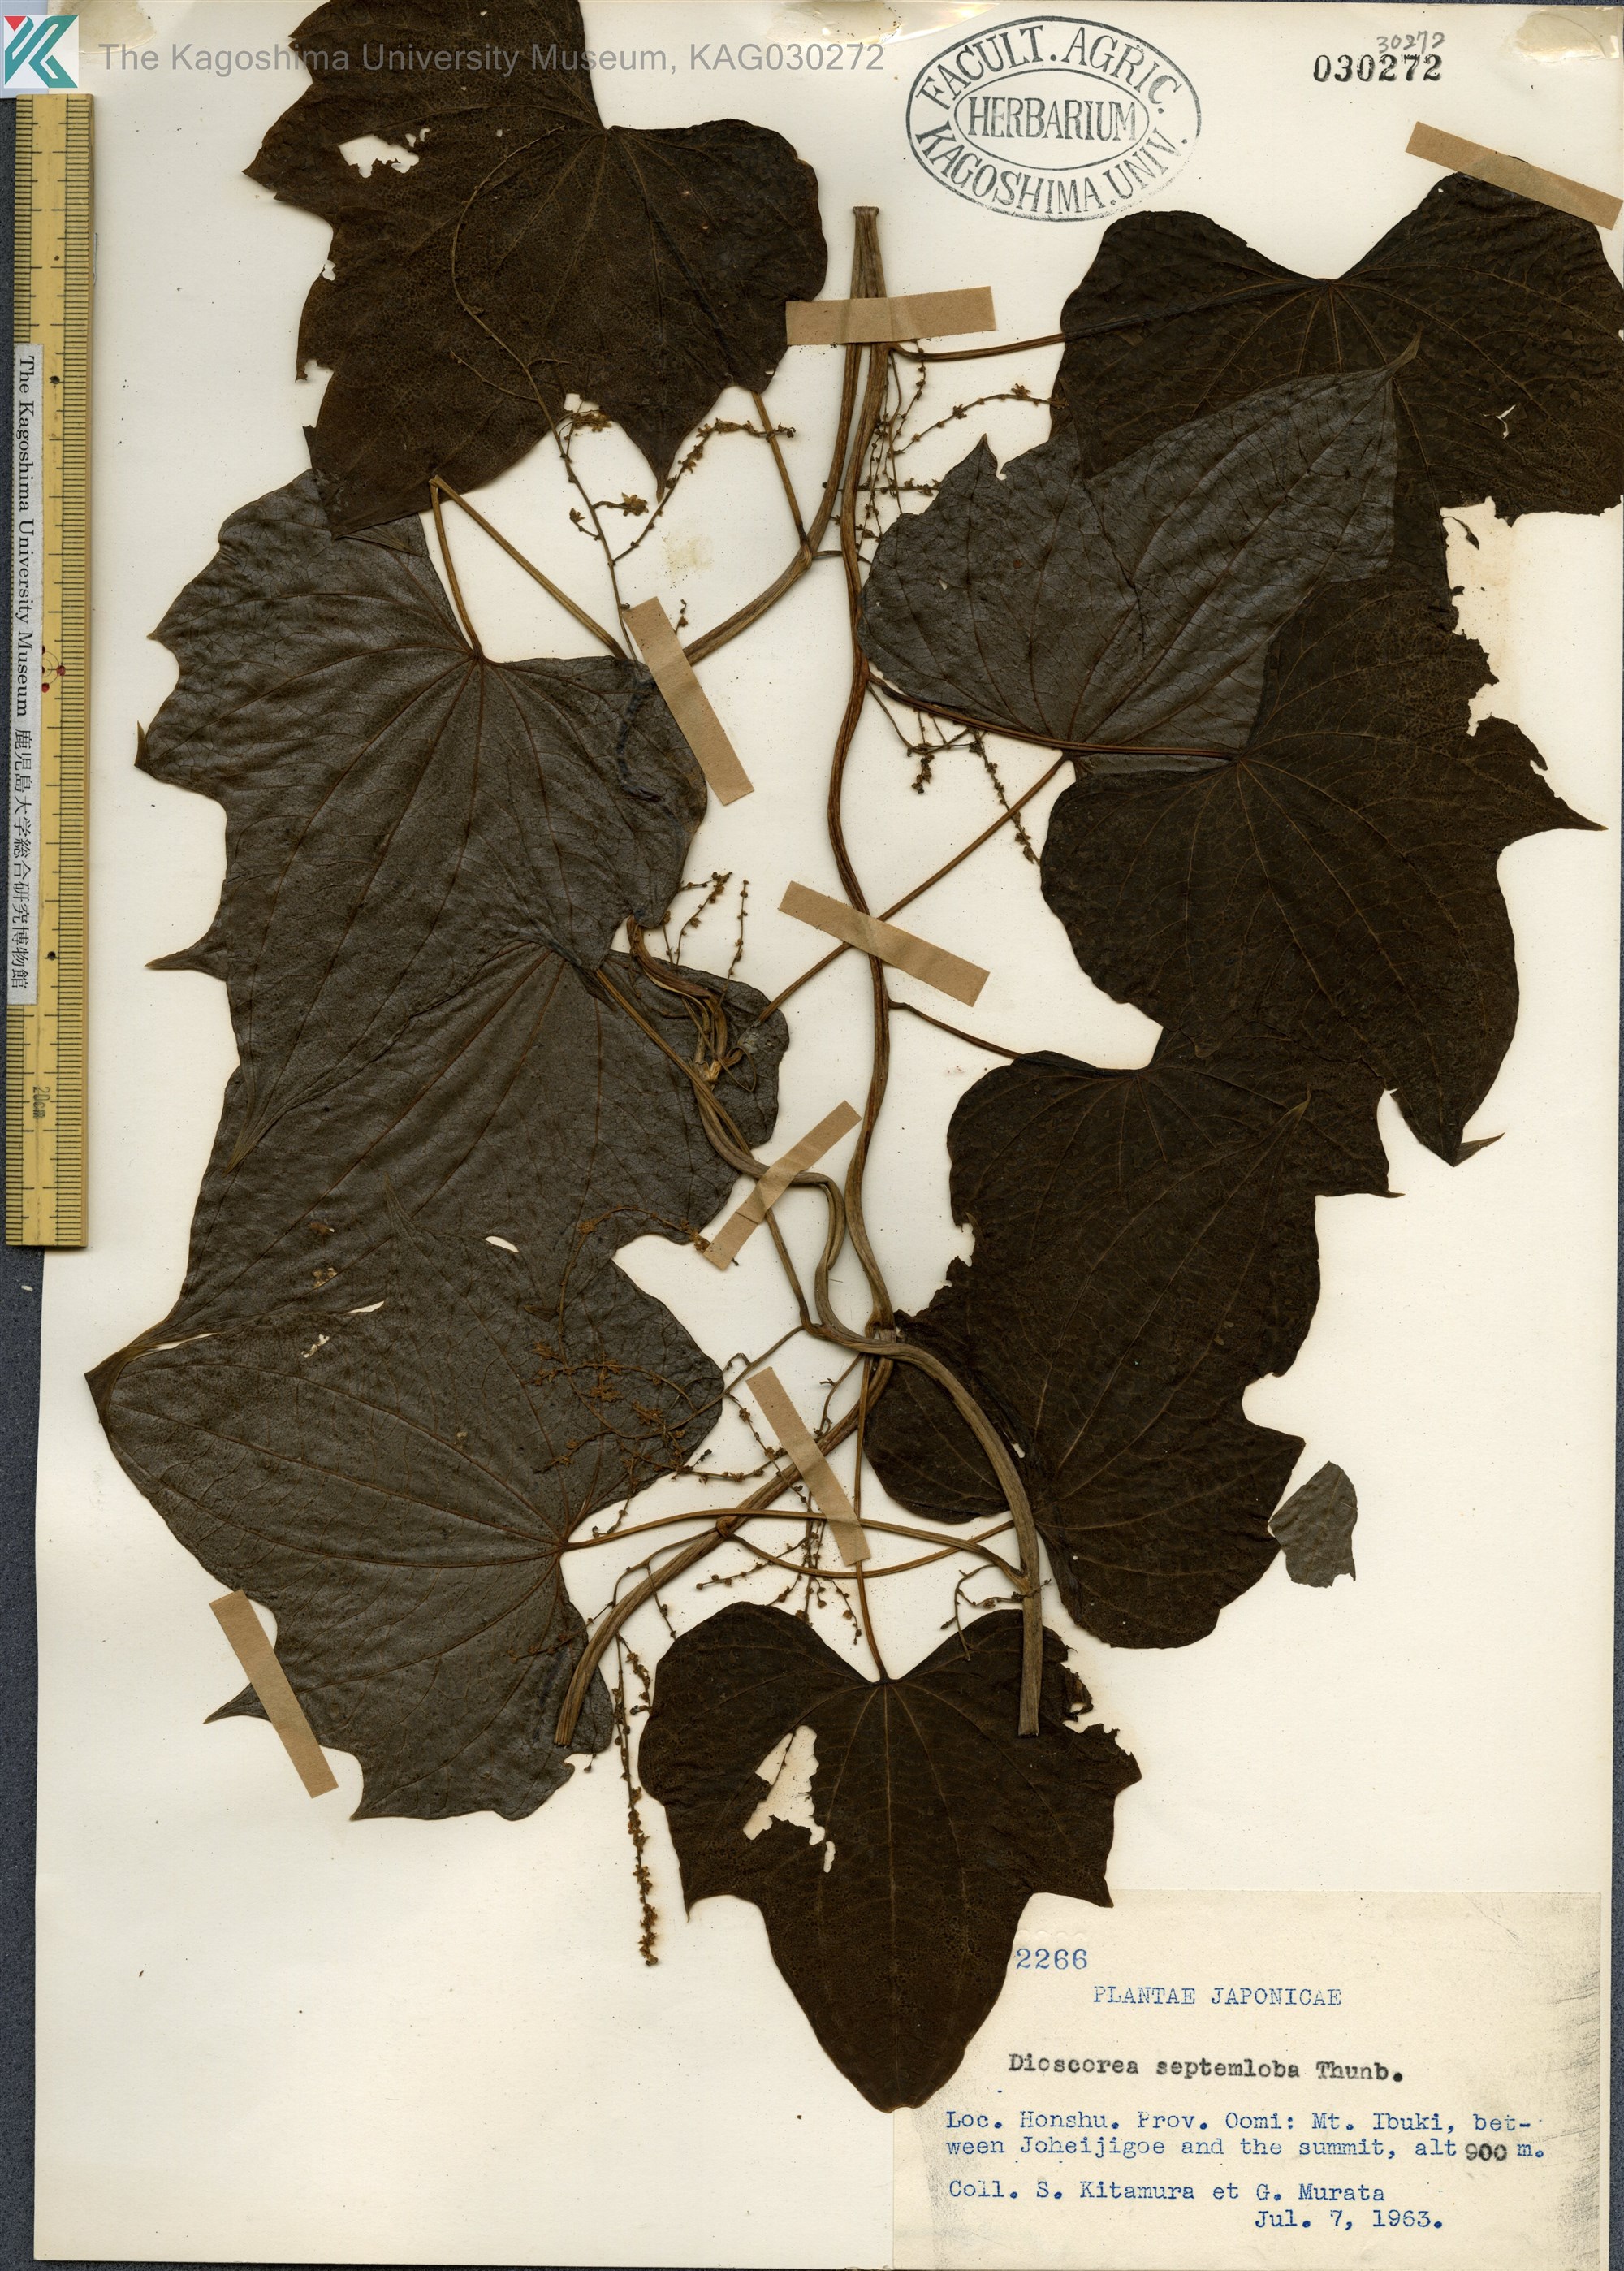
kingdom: Plantae
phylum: Tracheophyta
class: Liliopsida
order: Dioscoreales
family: Dioscoreaceae
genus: Dioscorea
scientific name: Dioscorea septemloba
